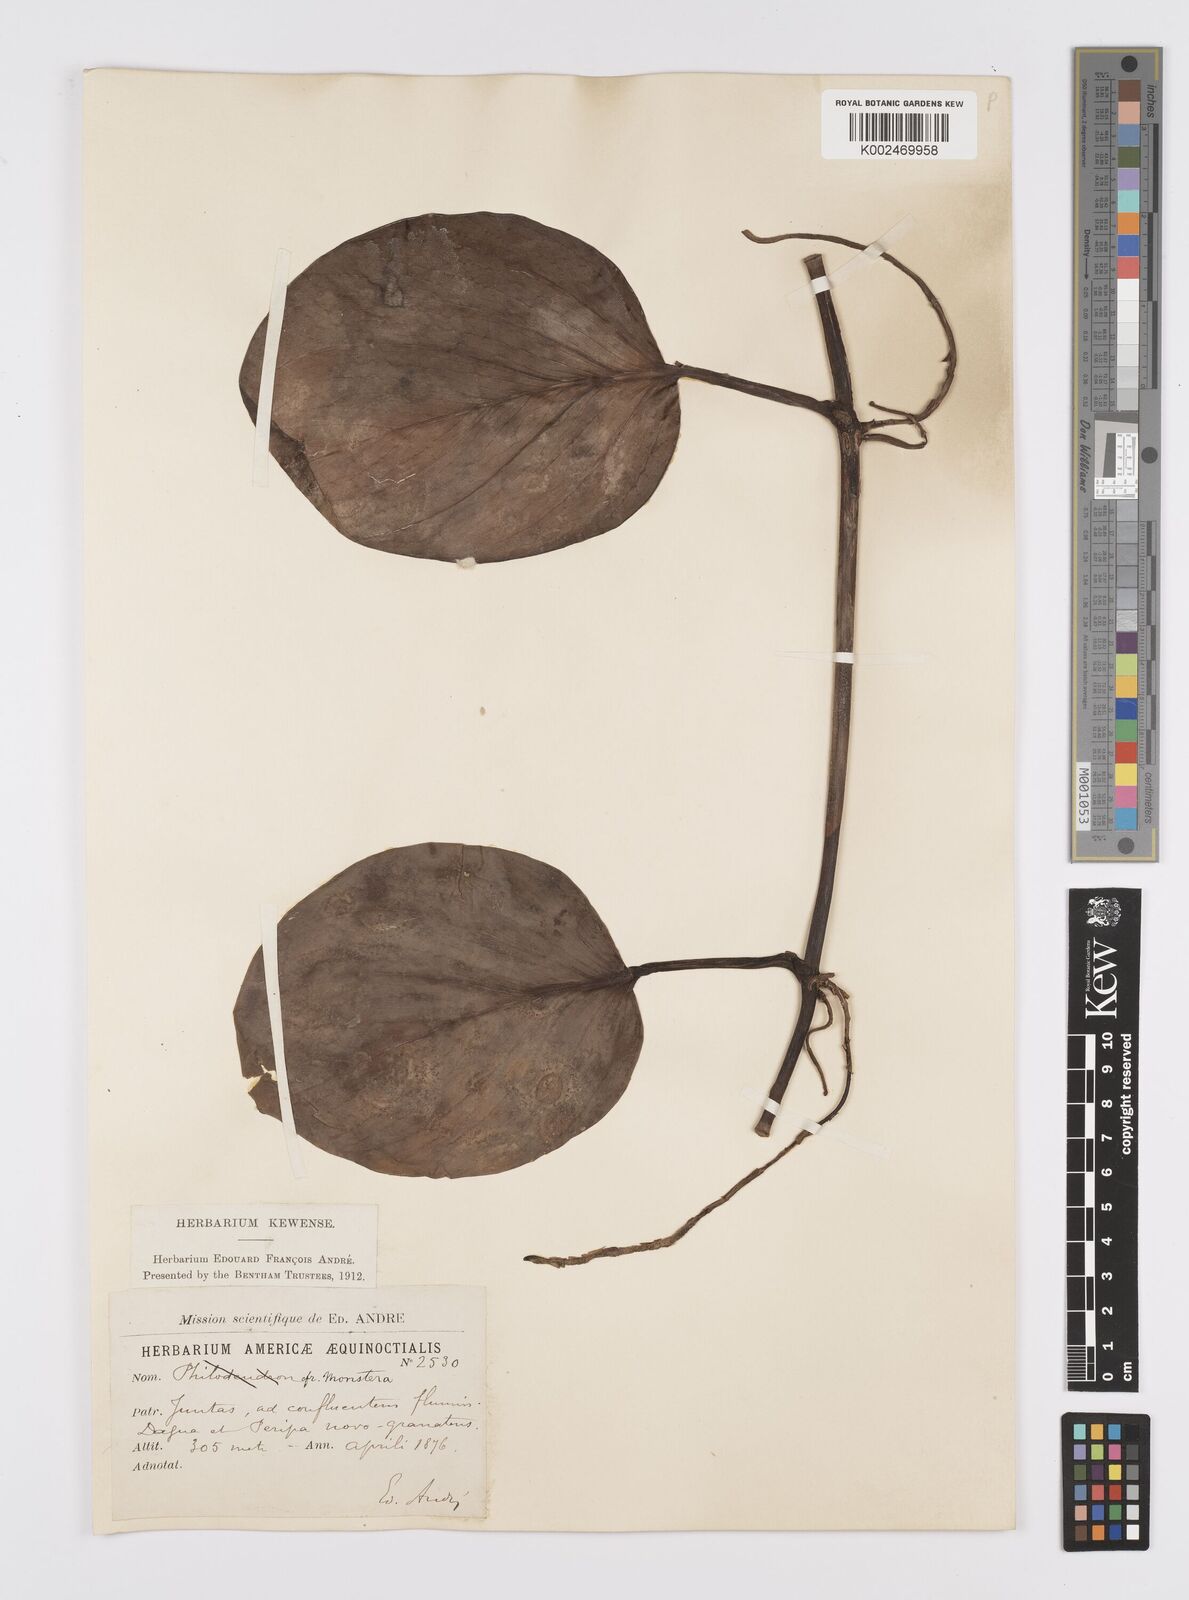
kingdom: Plantae
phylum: Tracheophyta
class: Liliopsida
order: Alismatales
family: Araceae
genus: Monstera
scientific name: Monstera
